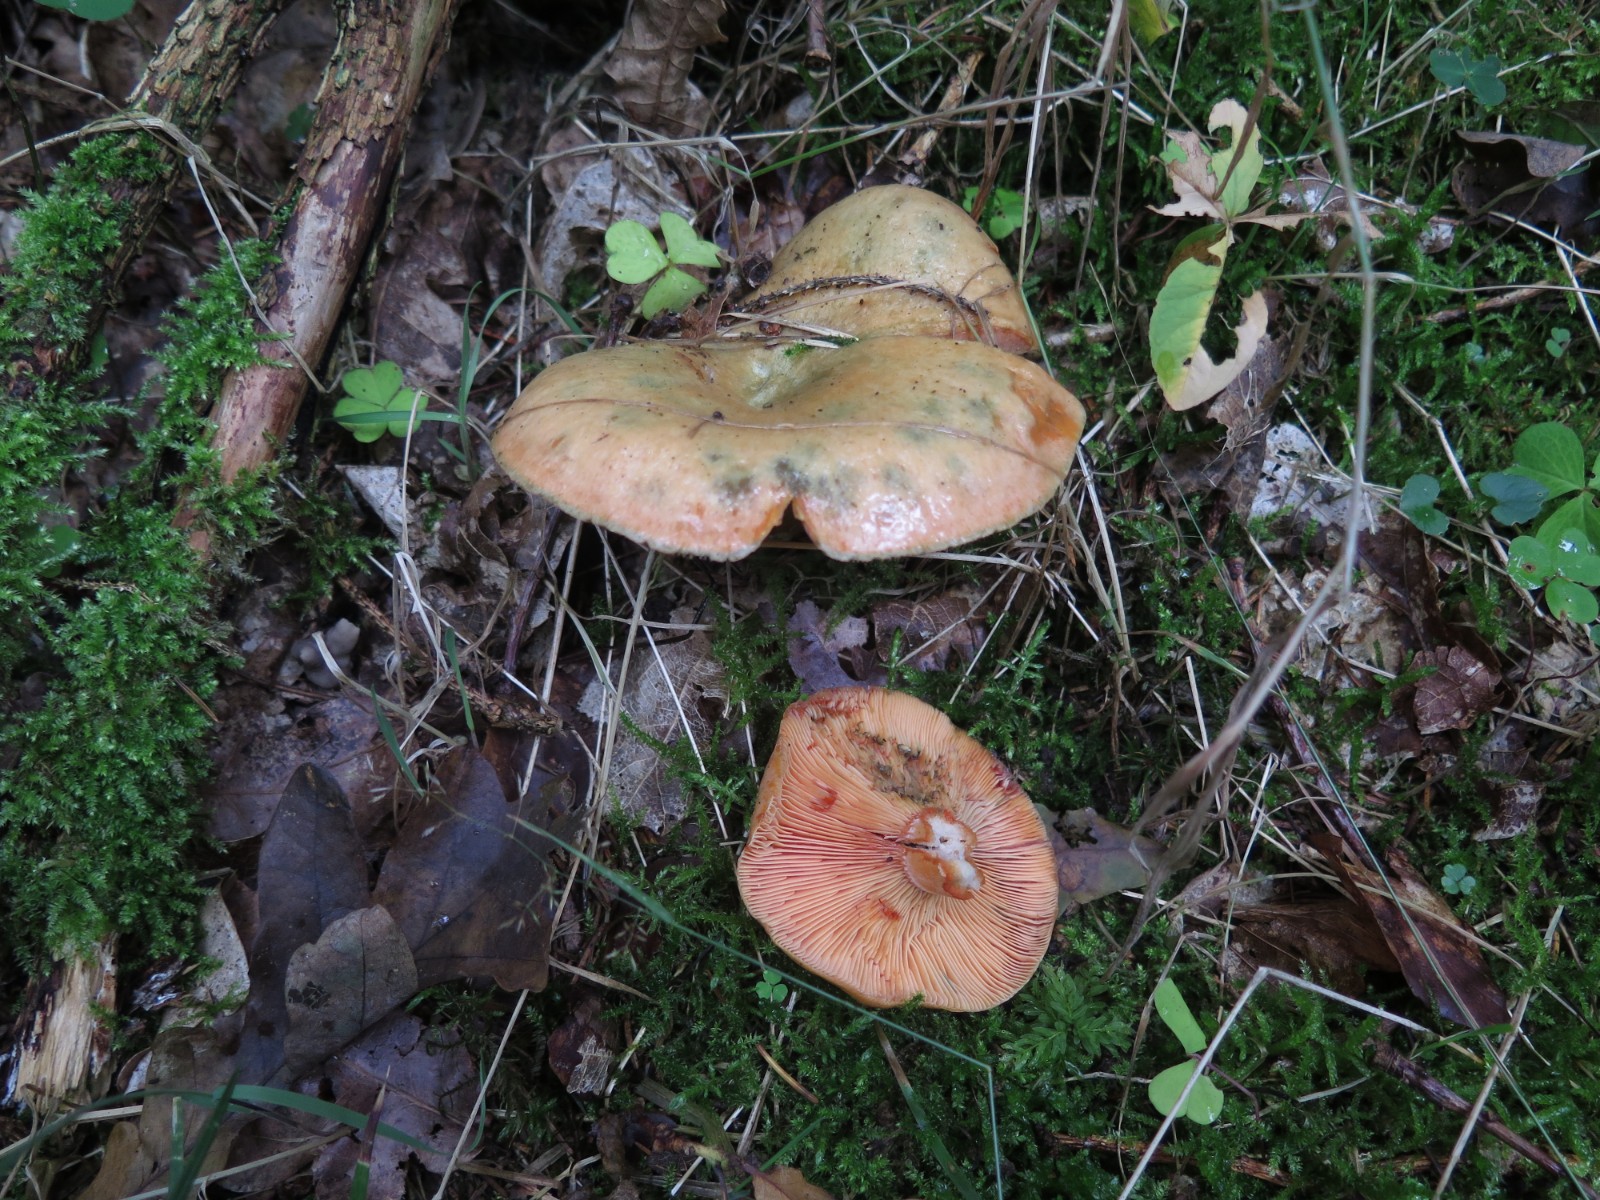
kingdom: Fungi
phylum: Basidiomycota
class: Agaricomycetes
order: Russulales
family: Russulaceae
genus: Lactarius
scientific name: Lactarius deterrimus
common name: gran-mælkehat
